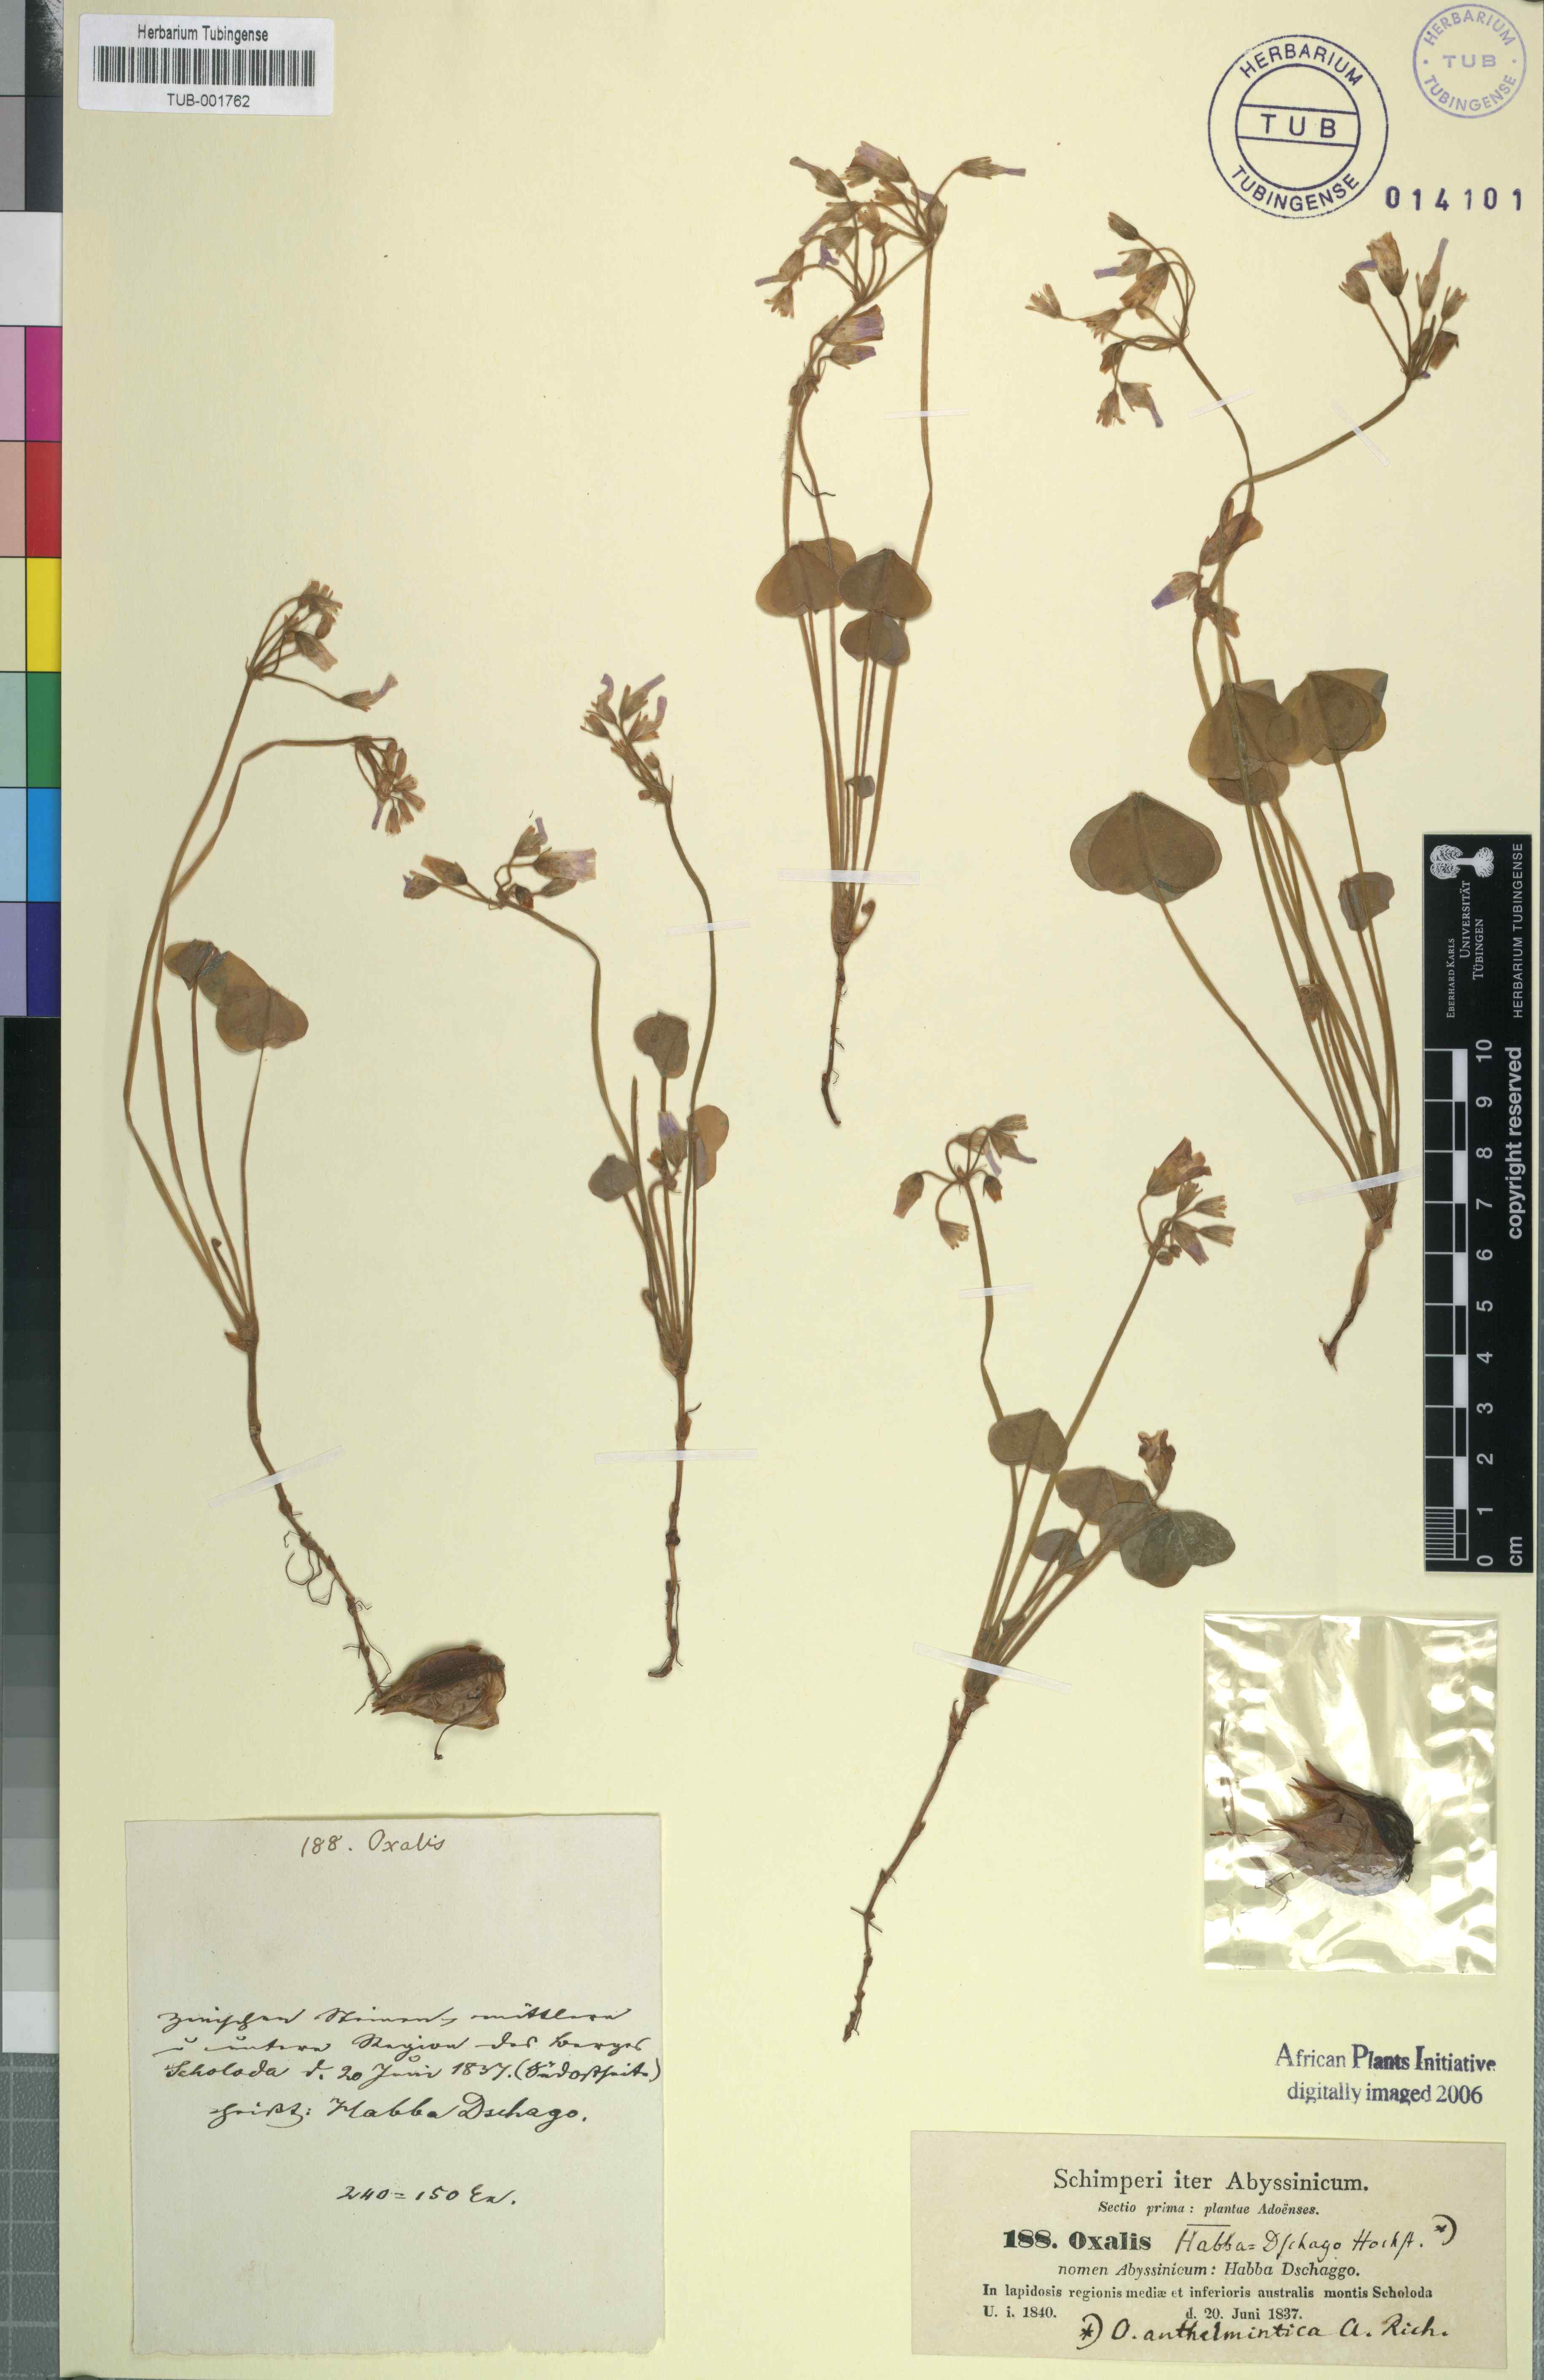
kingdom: Plantae
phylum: Tracheophyta
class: Magnoliopsida
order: Oxalidales
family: Oxalidaceae
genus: Oxalis
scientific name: Oxalis
